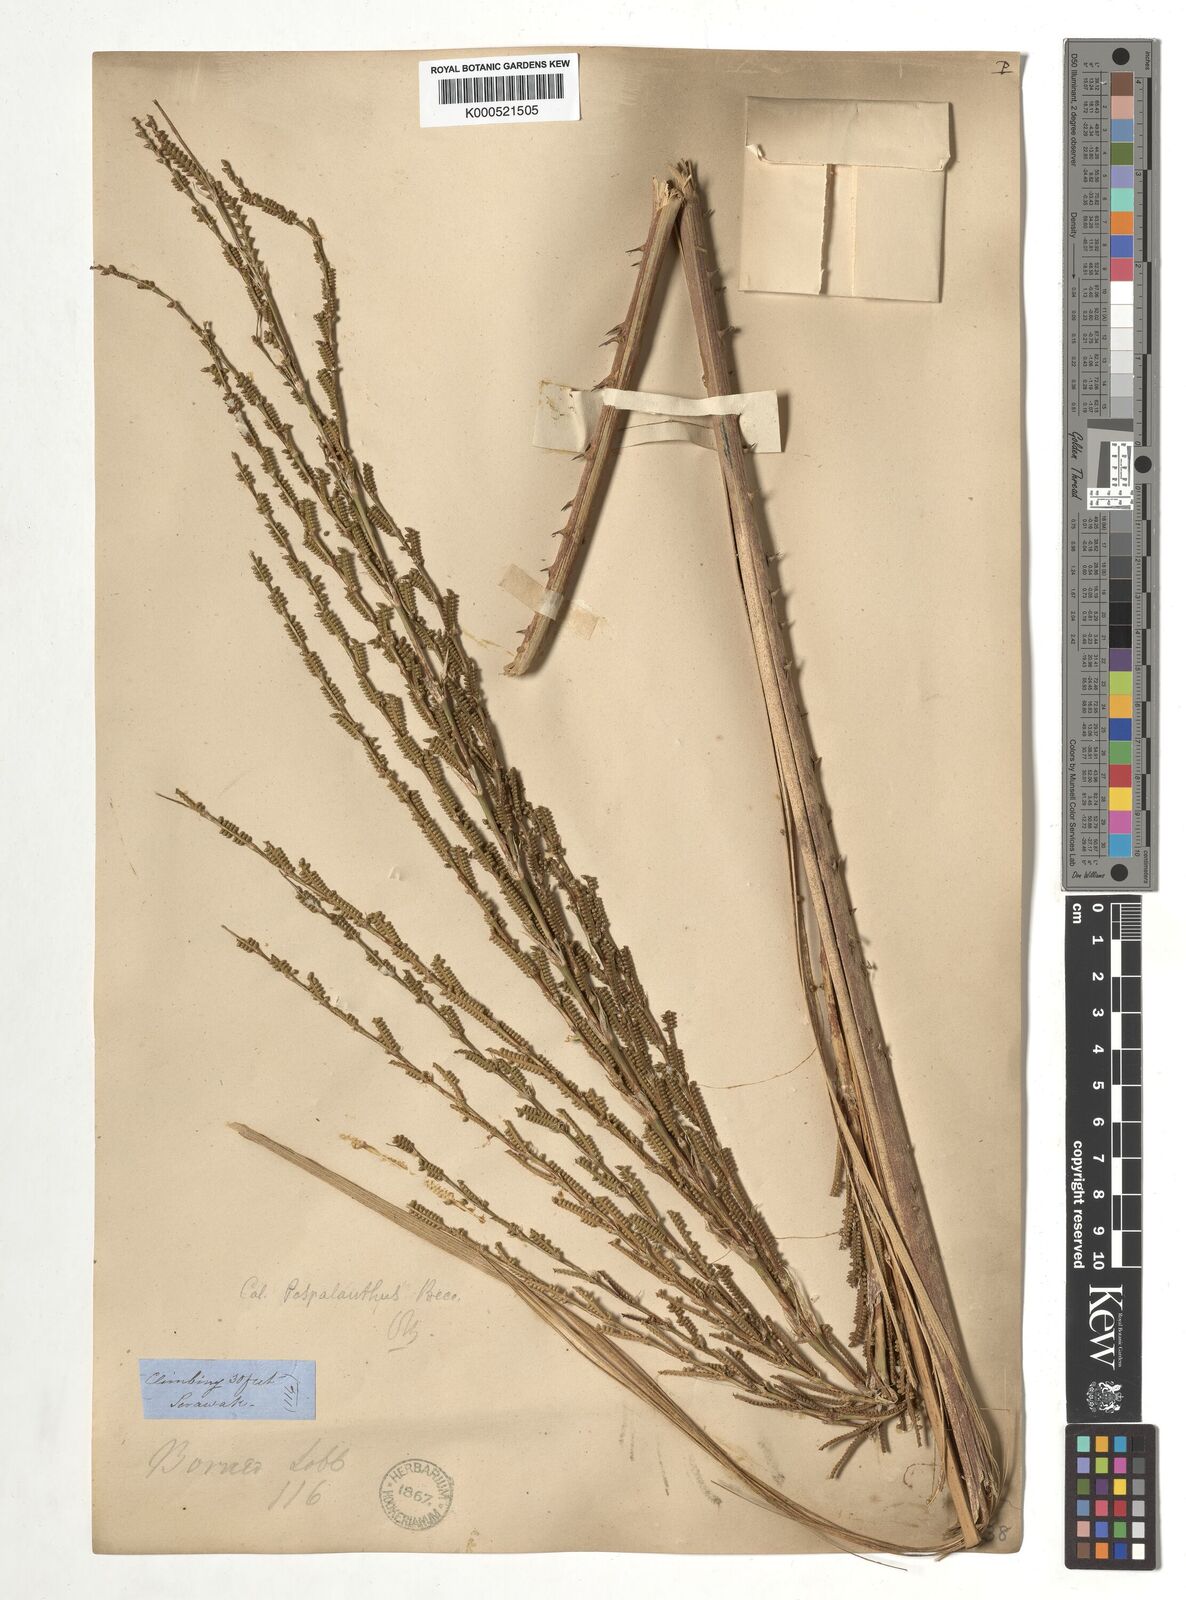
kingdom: Plantae
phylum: Tracheophyta
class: Liliopsida
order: Arecales
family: Arecaceae
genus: Calamus
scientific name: Calamus paspalanthus
